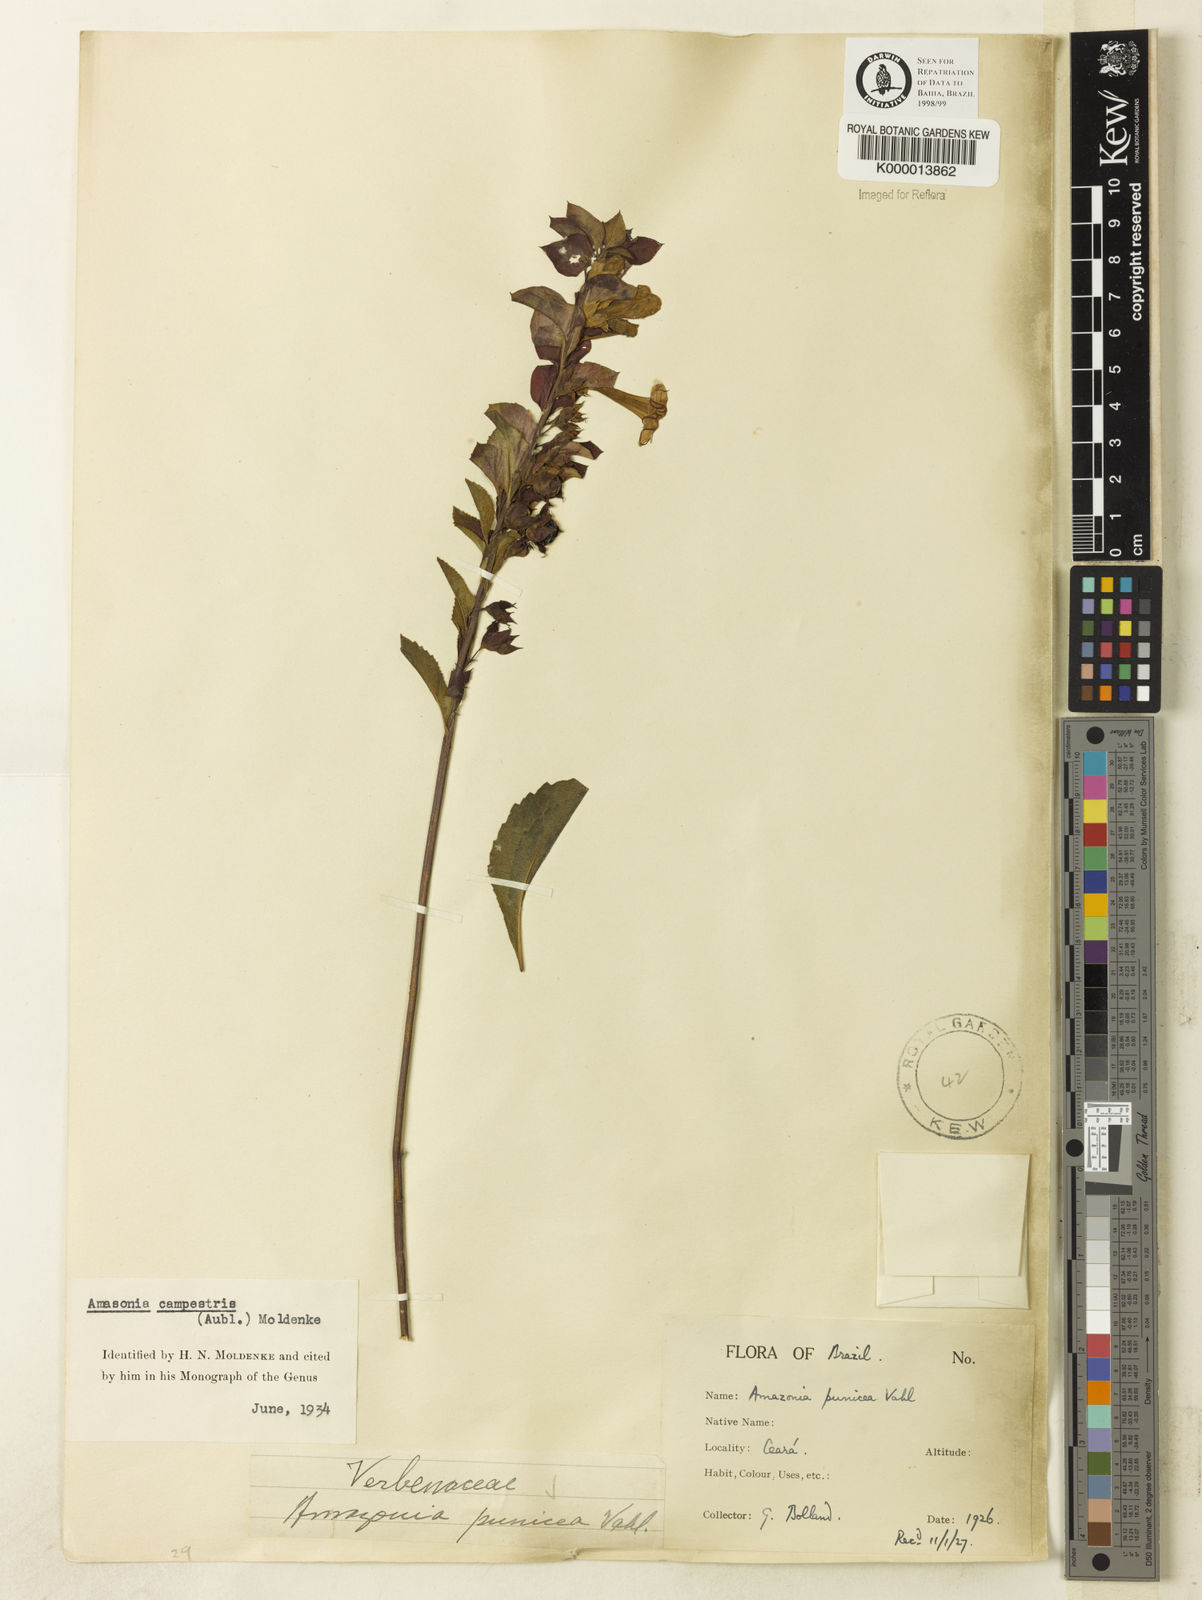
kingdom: Plantae
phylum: Tracheophyta
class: Magnoliopsida
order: Lamiales
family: Lamiaceae
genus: Amasonia
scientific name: Amasonia campestris
